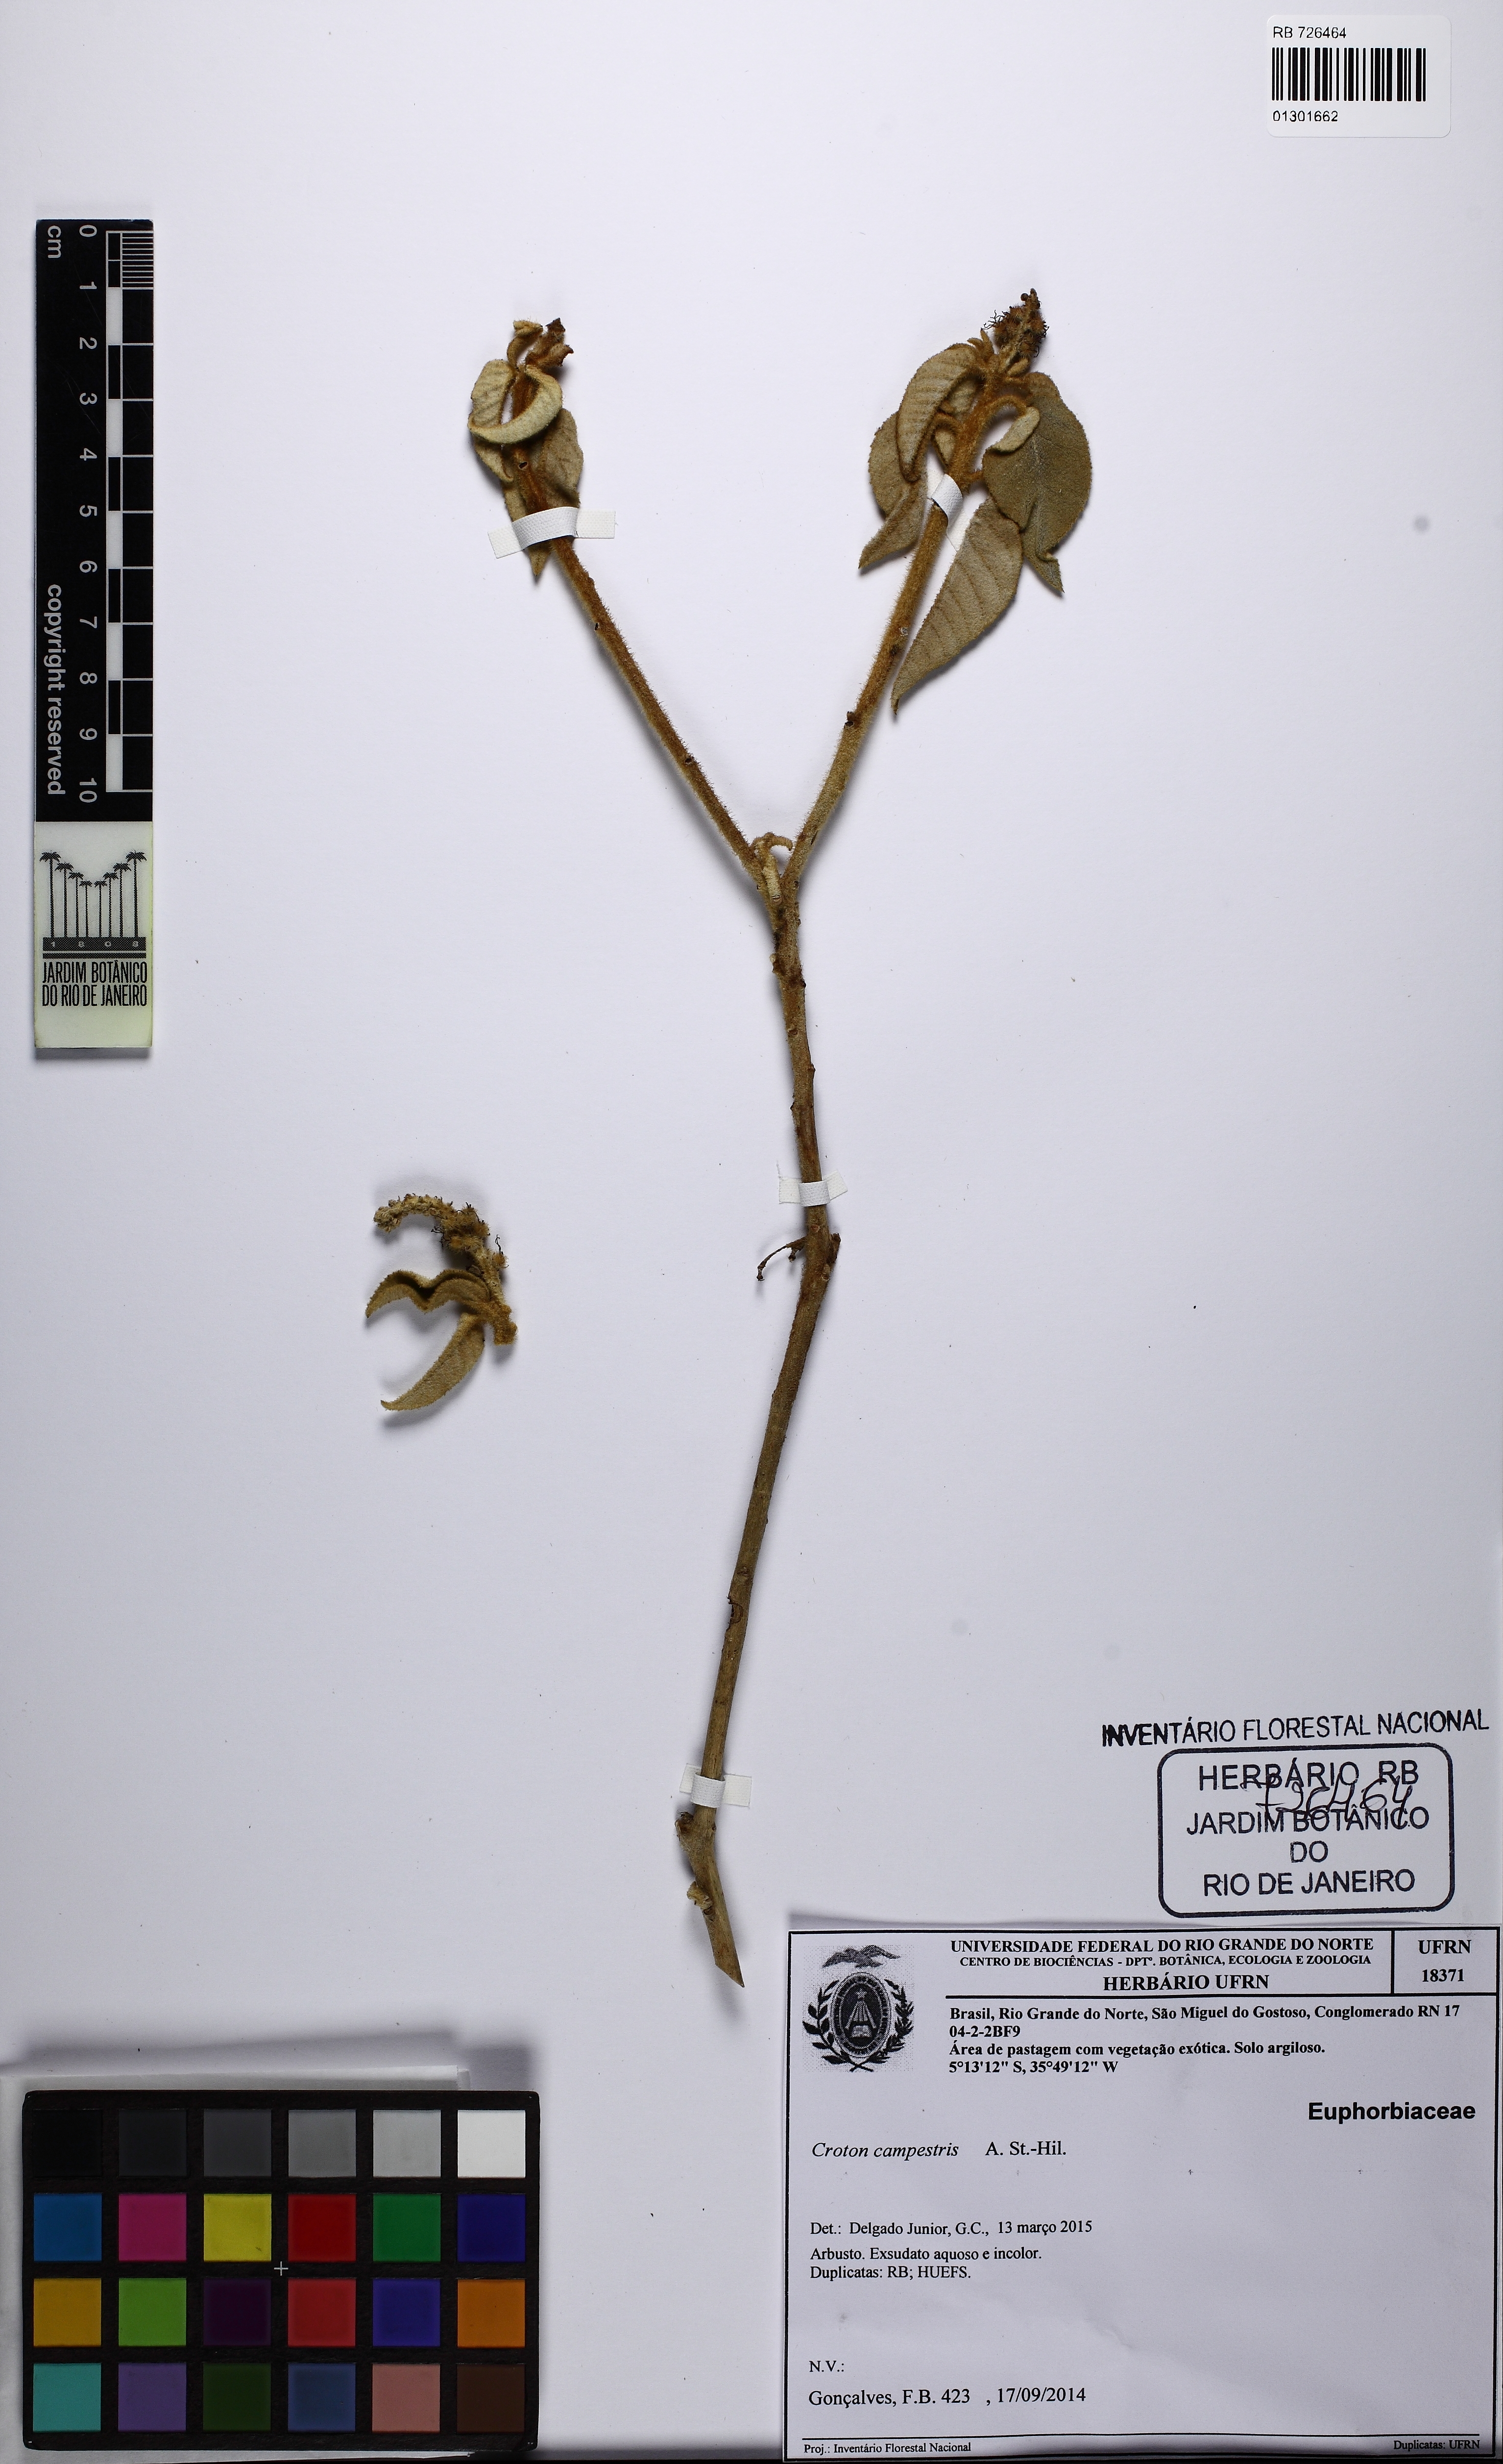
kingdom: Plantae
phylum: Tracheophyta
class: Magnoliopsida
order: Malpighiales
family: Euphorbiaceae
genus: Croton
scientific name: Croton campestris
